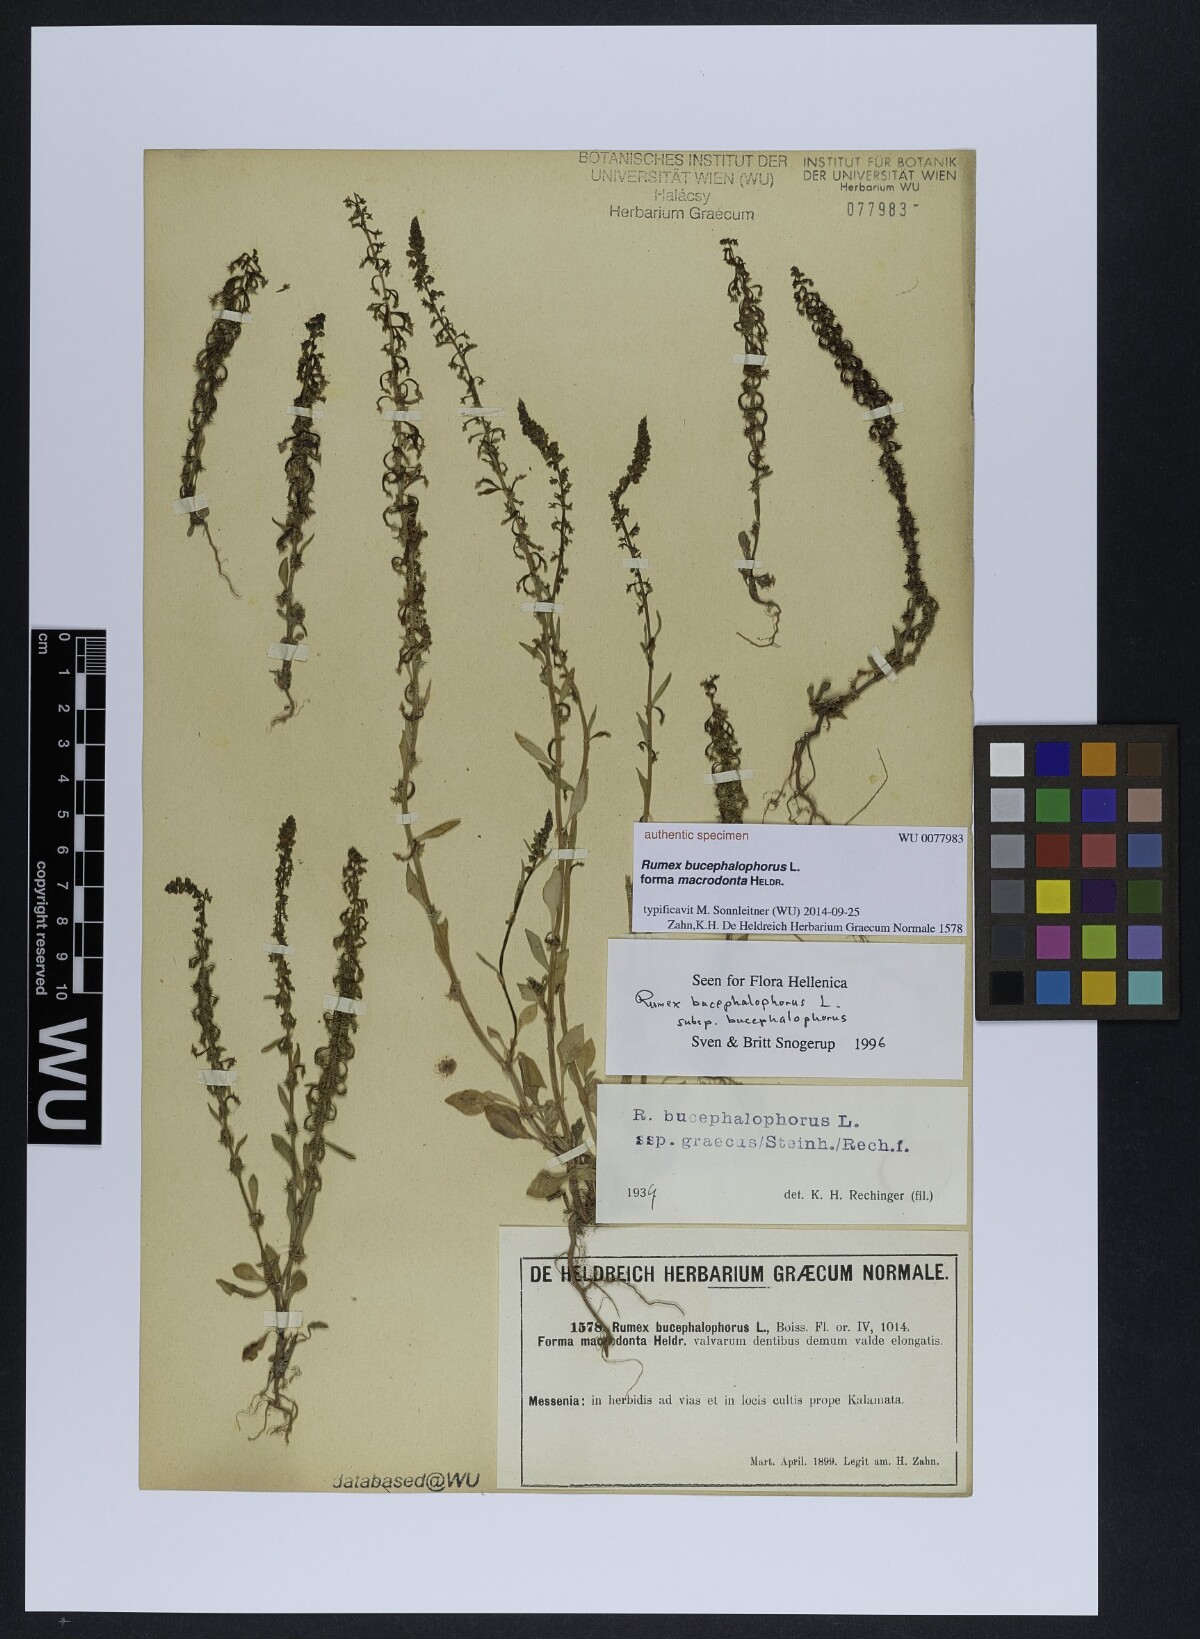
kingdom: Plantae
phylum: Tracheophyta
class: Magnoliopsida
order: Caryophyllales
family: Polygonaceae
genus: Rumex
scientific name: Rumex bucephalophorus
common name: Red dock
